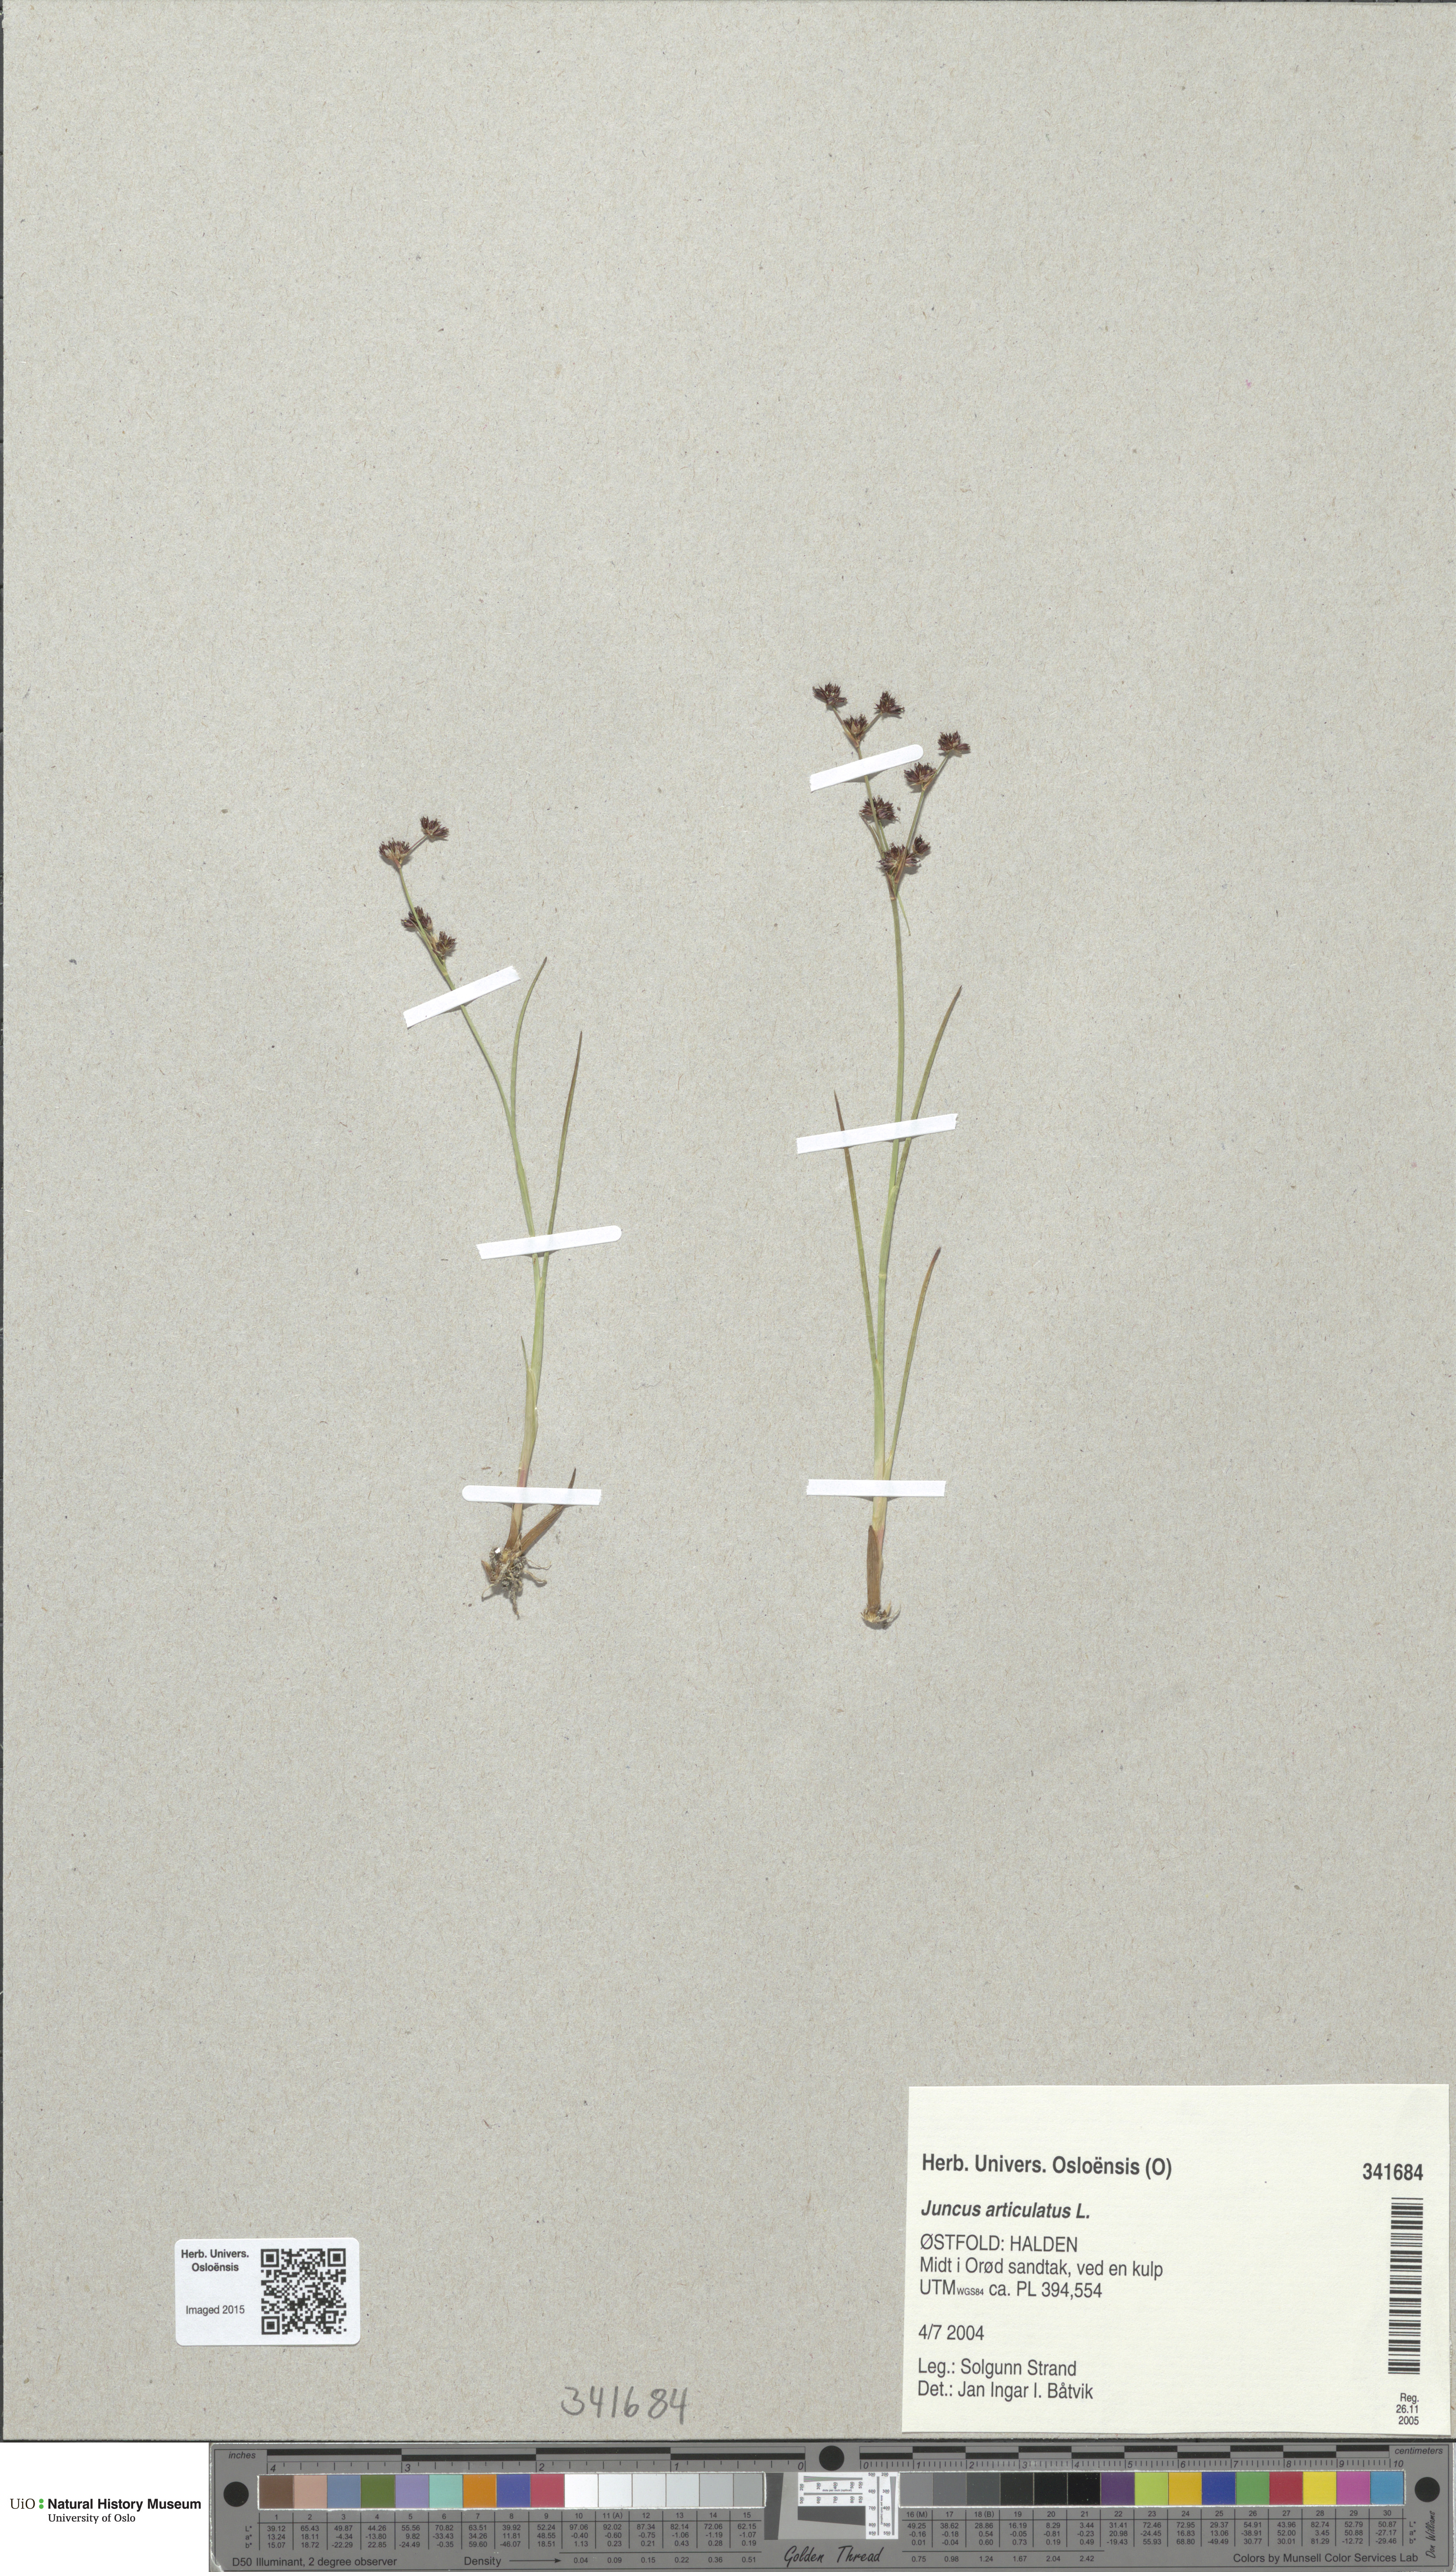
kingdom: Plantae
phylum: Tracheophyta
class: Liliopsida
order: Poales
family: Juncaceae
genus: Juncus
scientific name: Juncus articulatus
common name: Jointed rush
